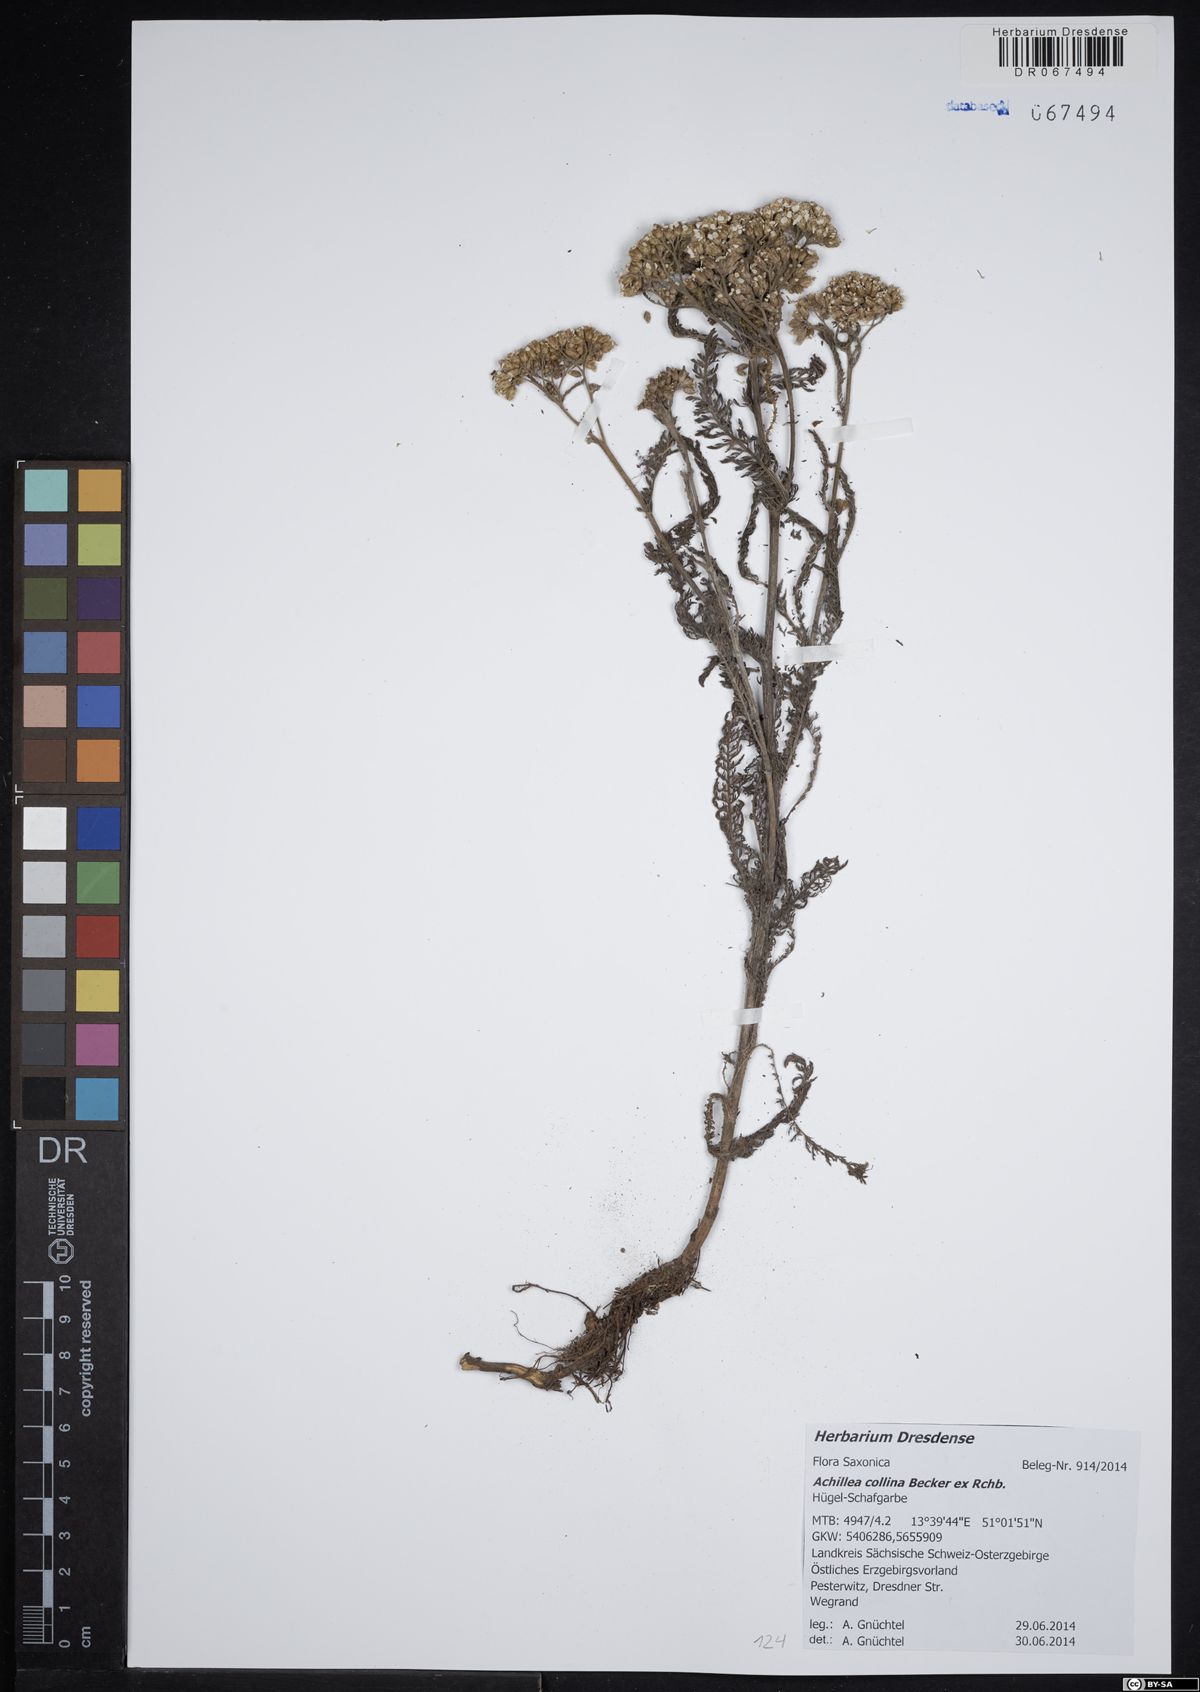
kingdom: Plantae
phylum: Tracheophyta
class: Magnoliopsida
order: Asterales
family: Asteraceae
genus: Achillea
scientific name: Achillea collina
